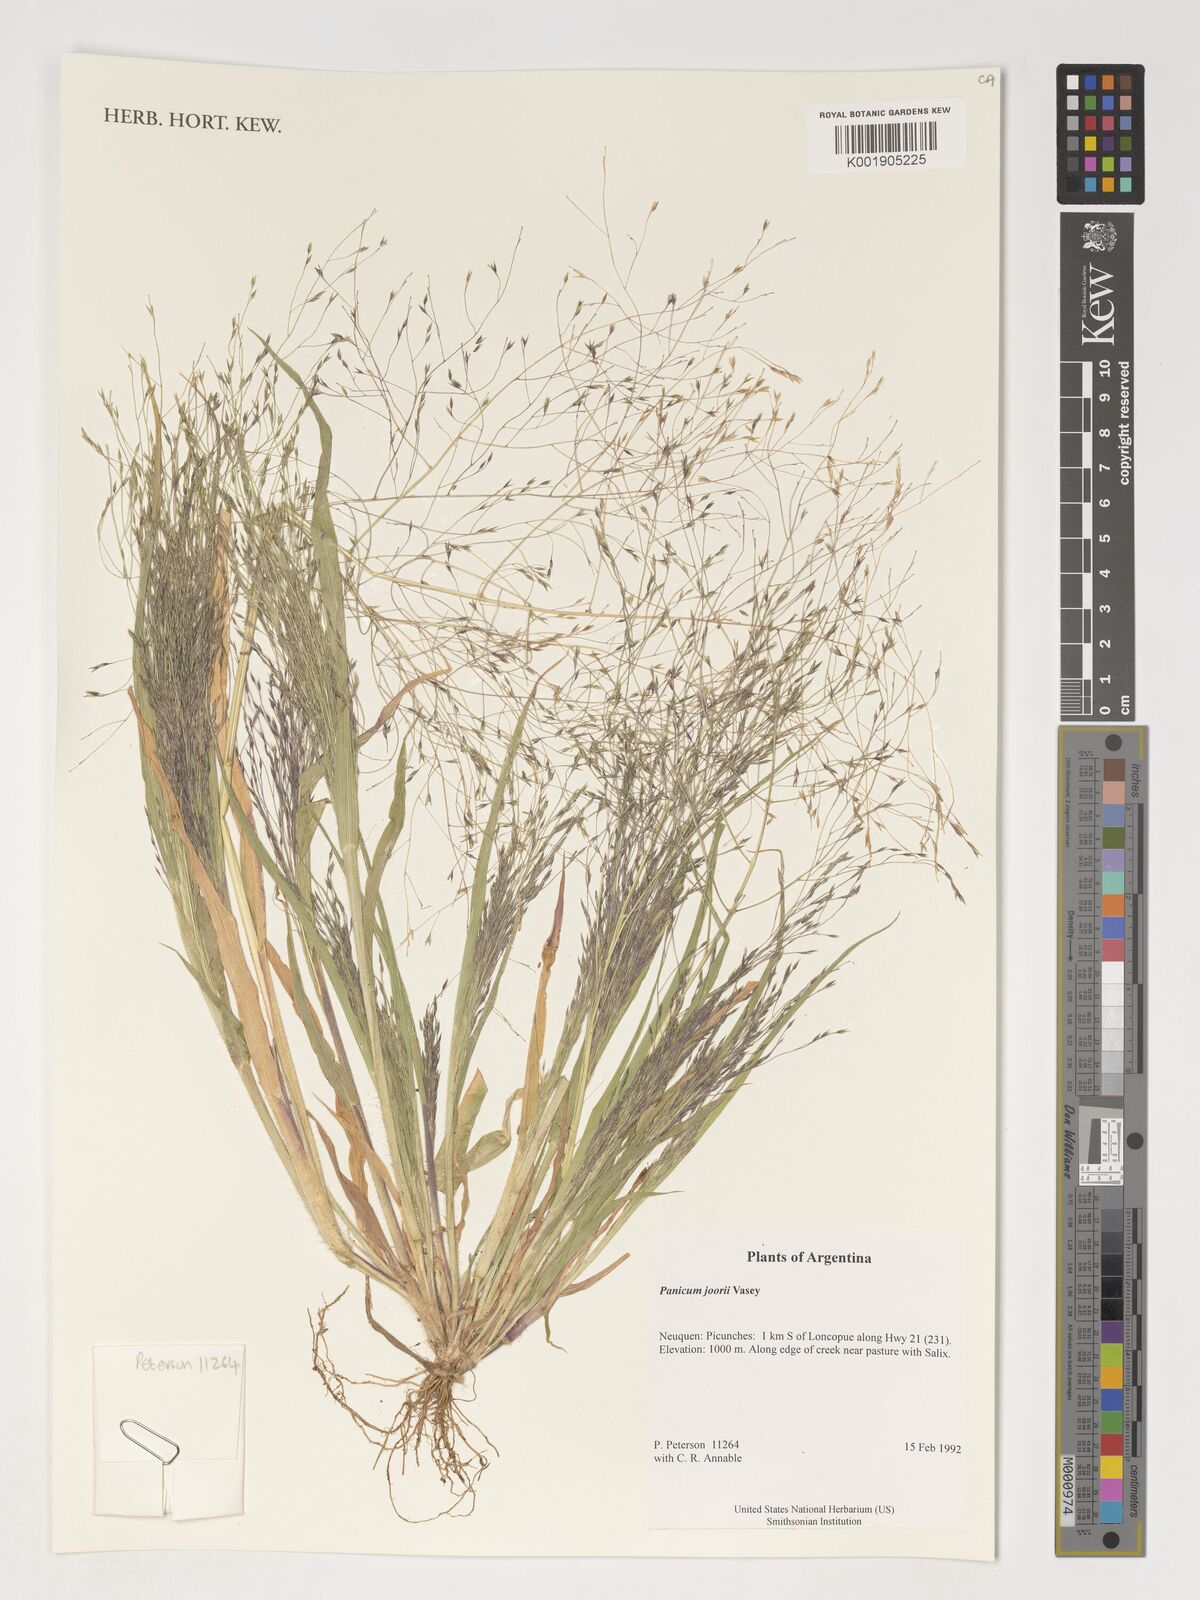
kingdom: Plantae
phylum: Tracheophyta
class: Liliopsida
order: Poales
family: Poaceae
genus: Dichanthelium
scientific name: Dichanthelium commutatum
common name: Variable witchgrass
